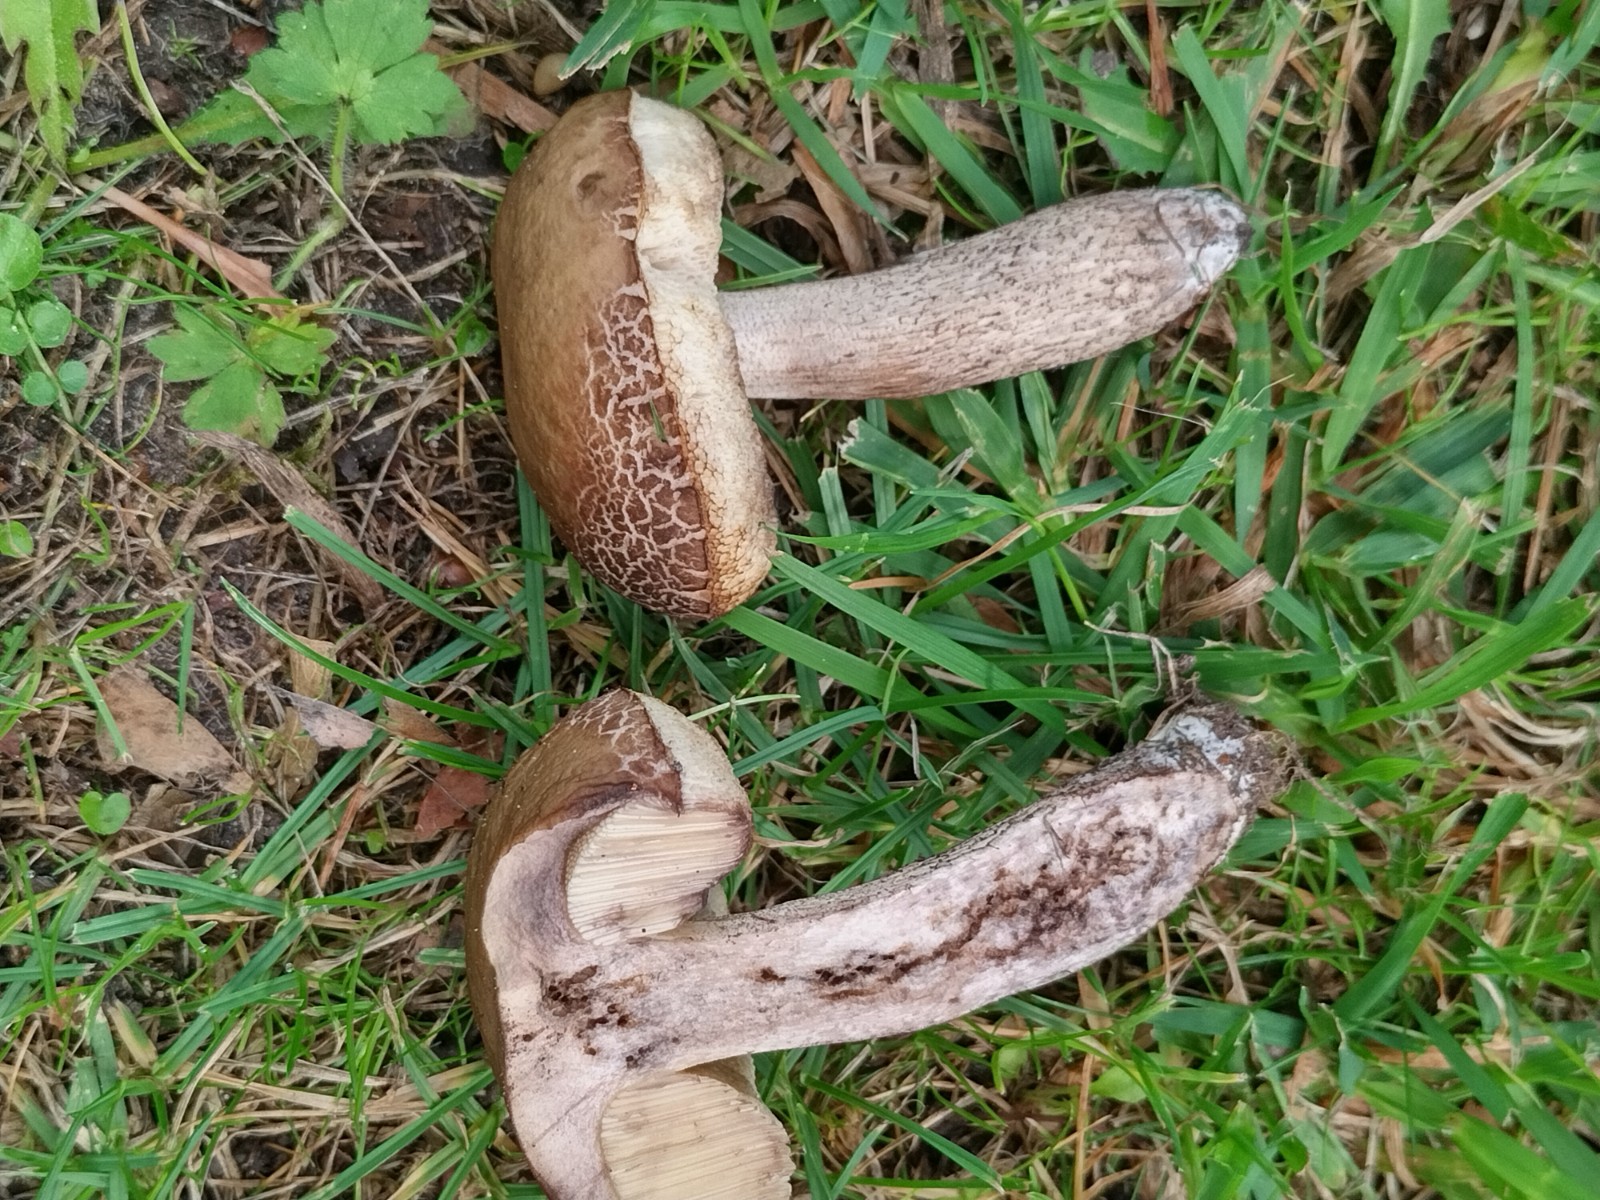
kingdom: Fungi
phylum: Basidiomycota
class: Agaricomycetes
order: Boletales
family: Boletaceae
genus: Leccinellum
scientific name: Leccinellum pseudoscabrum
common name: avnbøg-skælrørhat
